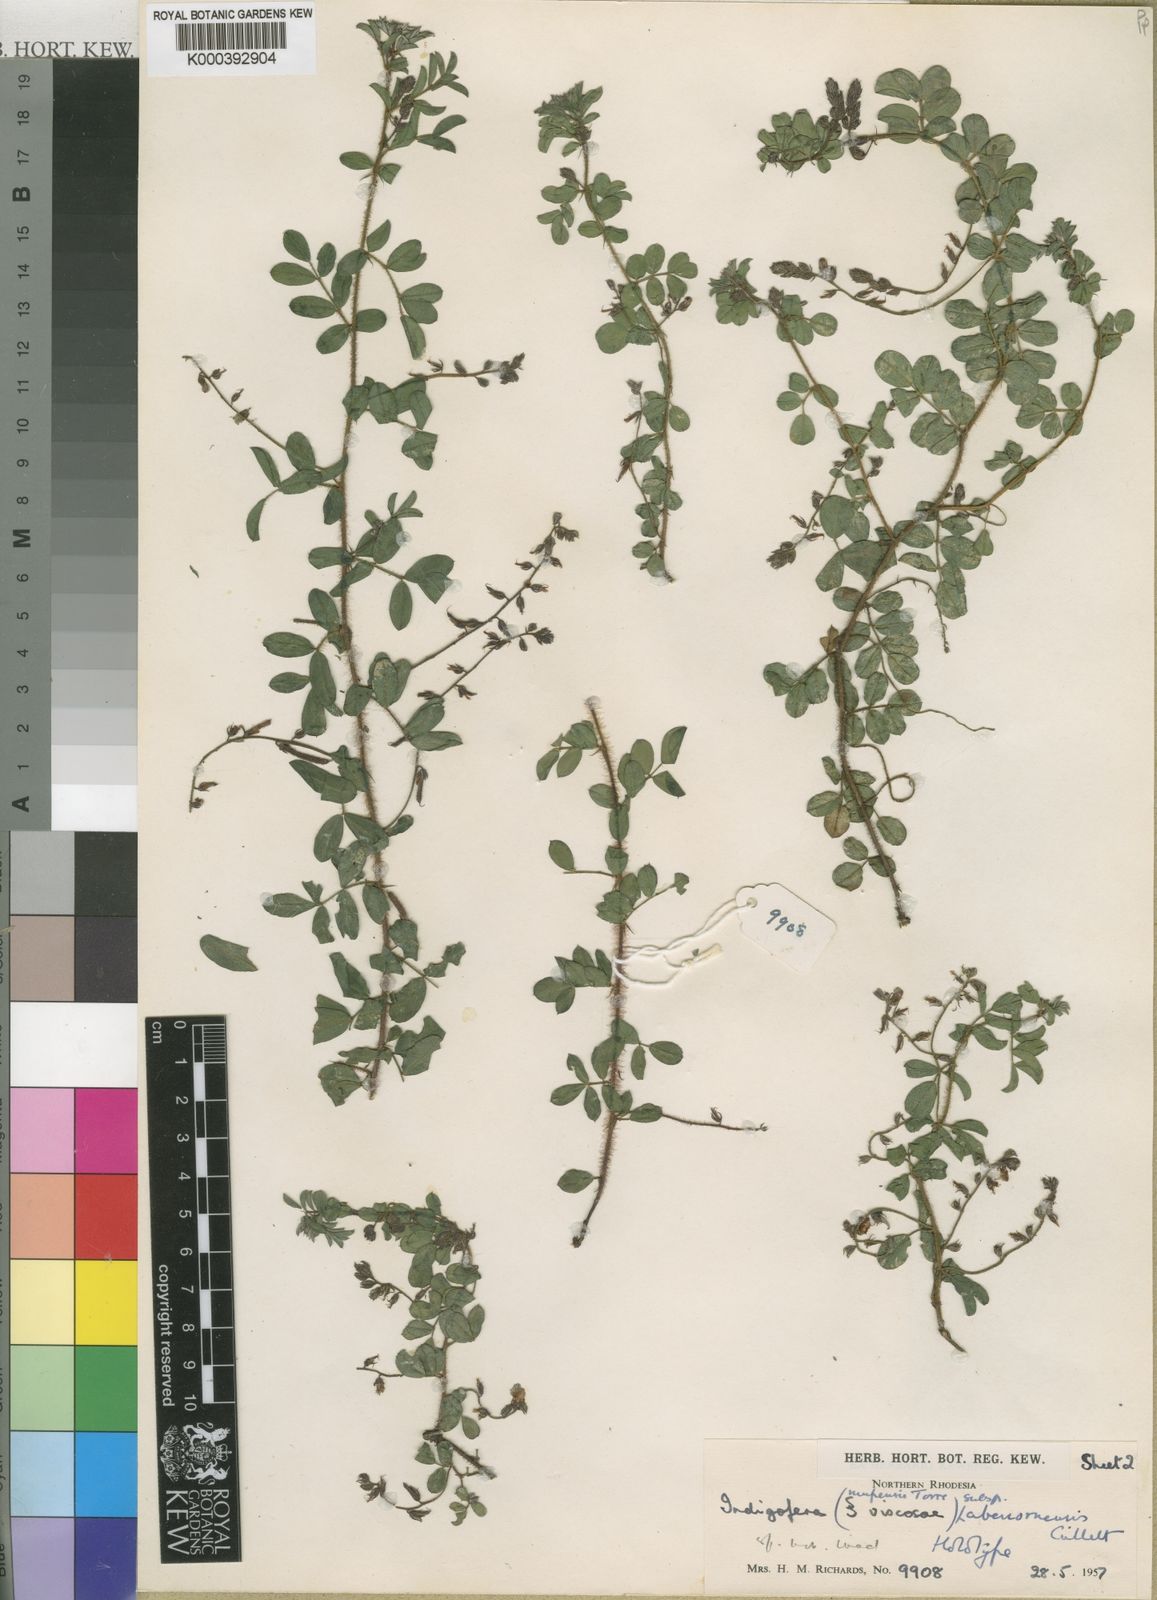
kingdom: Plantae
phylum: Tracheophyta
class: Magnoliopsida
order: Fabales
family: Fabaceae
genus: Indigofera
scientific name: Indigofera mupensis
